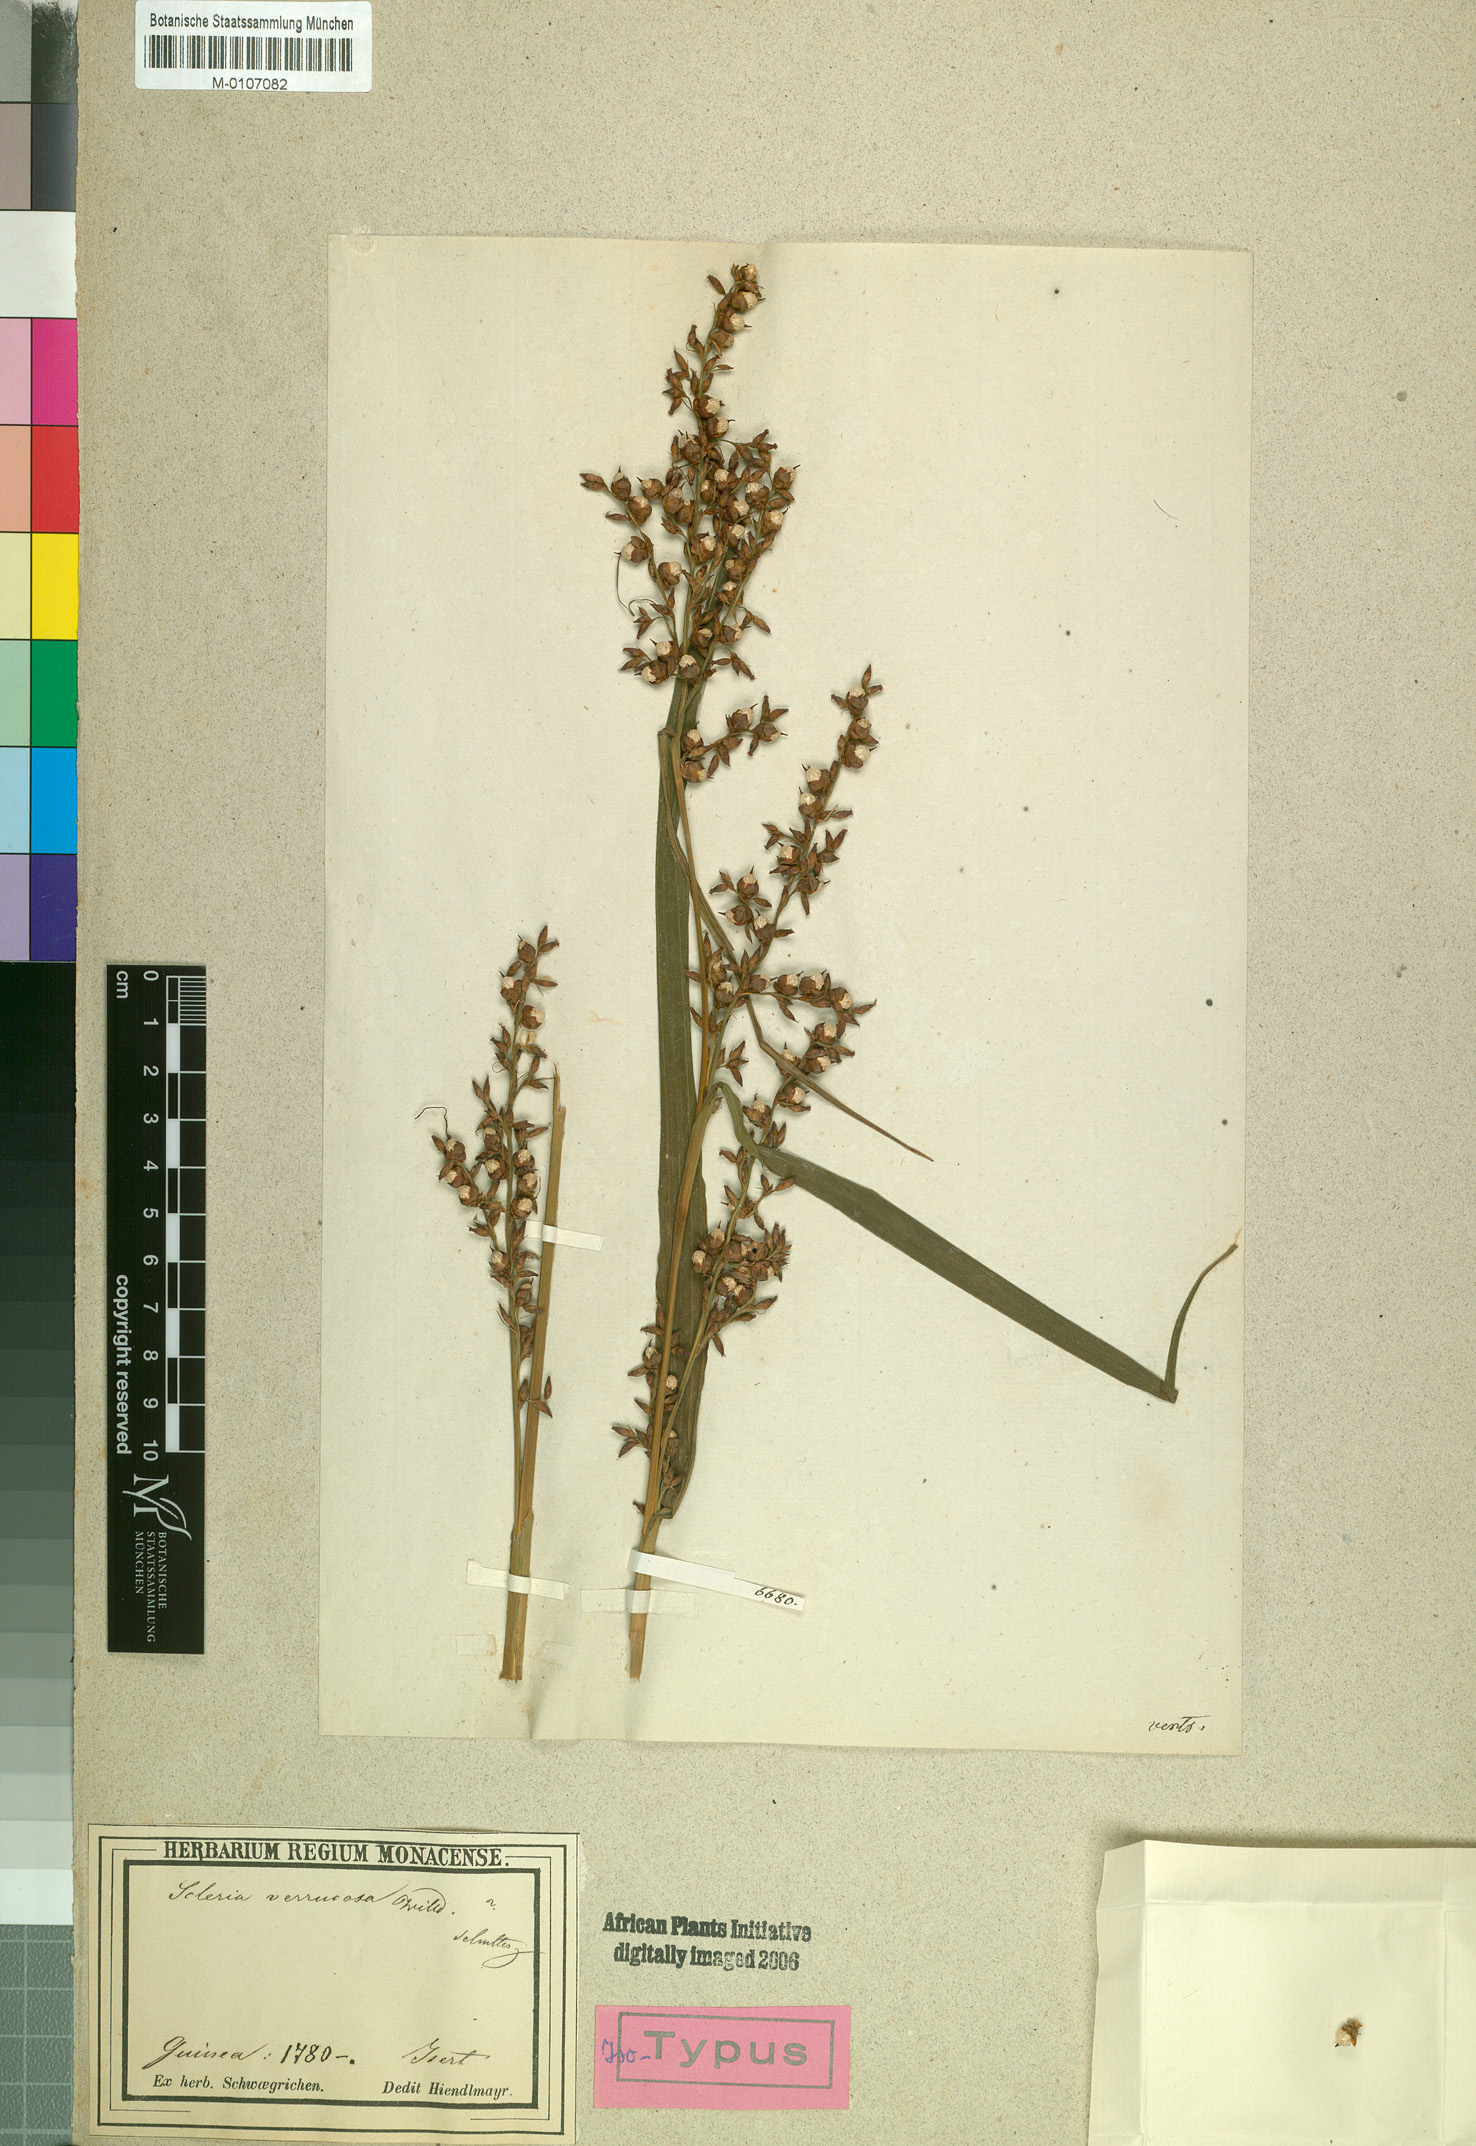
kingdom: Plantae
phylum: Tracheophyta
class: Liliopsida
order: Poales
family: Cyperaceae
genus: Scleria
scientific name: Scleria verrucosa
